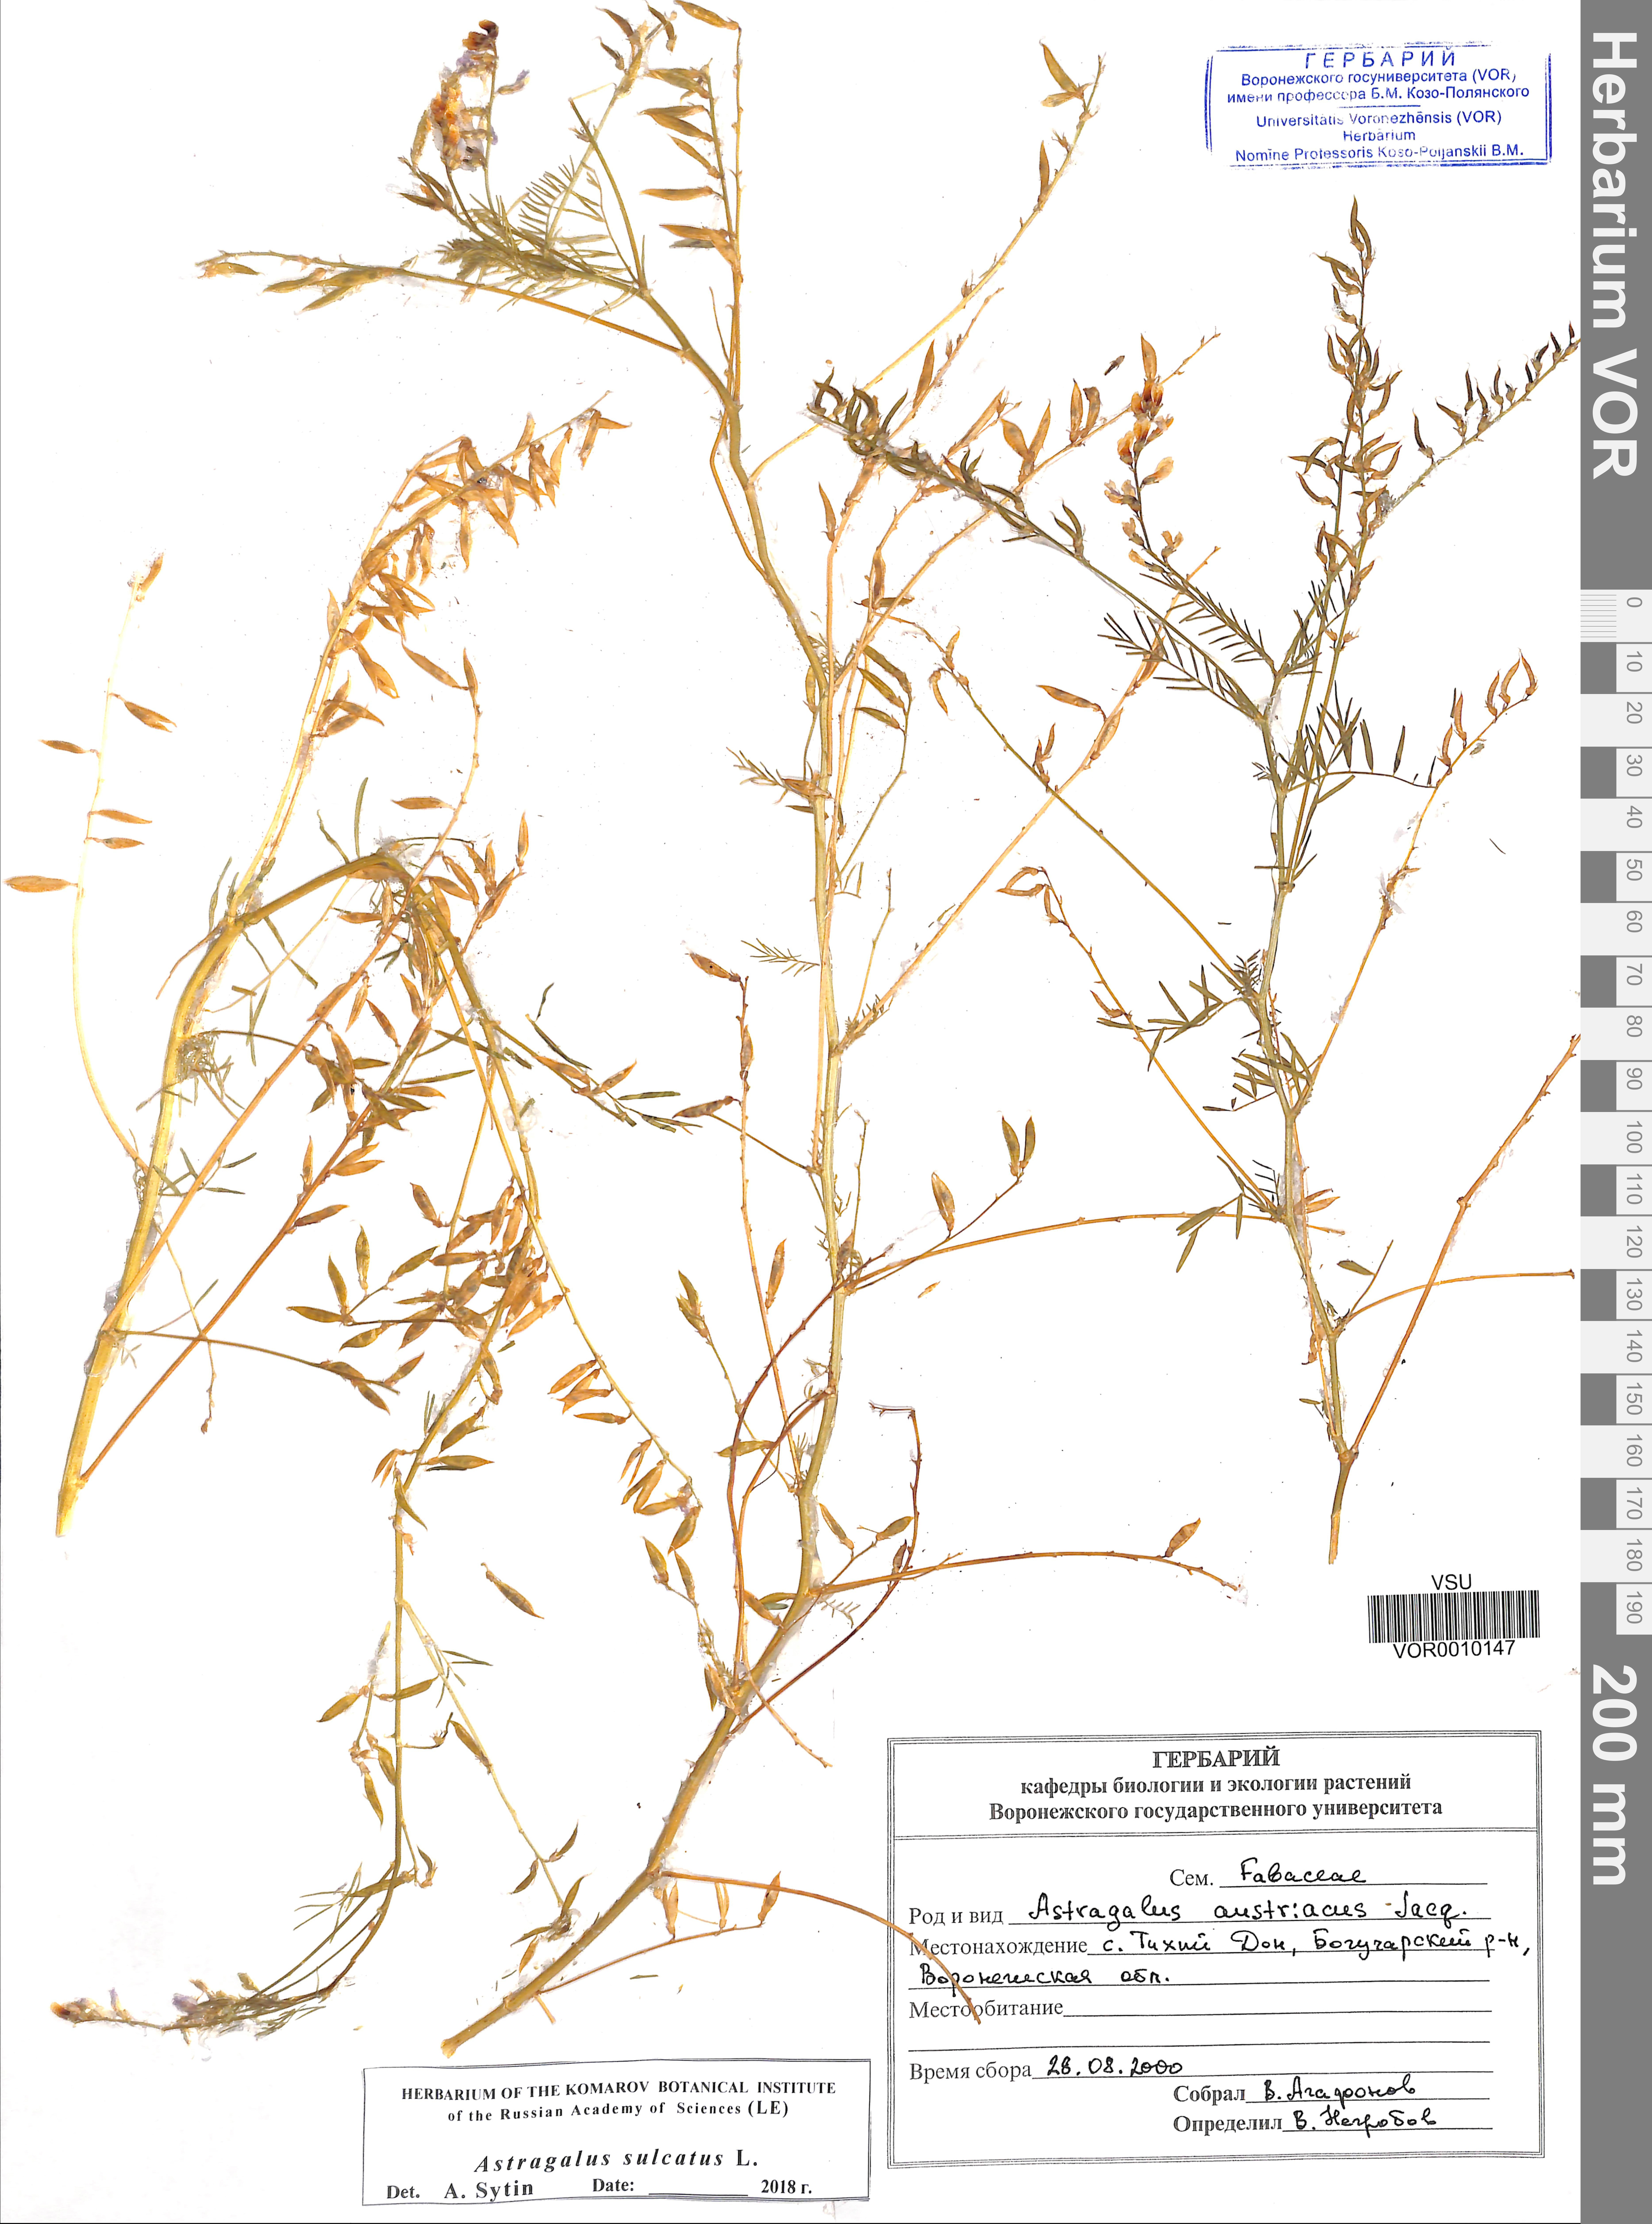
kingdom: Plantae
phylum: Tracheophyta
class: Magnoliopsida
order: Fabales
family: Fabaceae
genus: Astragalus
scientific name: Astragalus sulcatus
